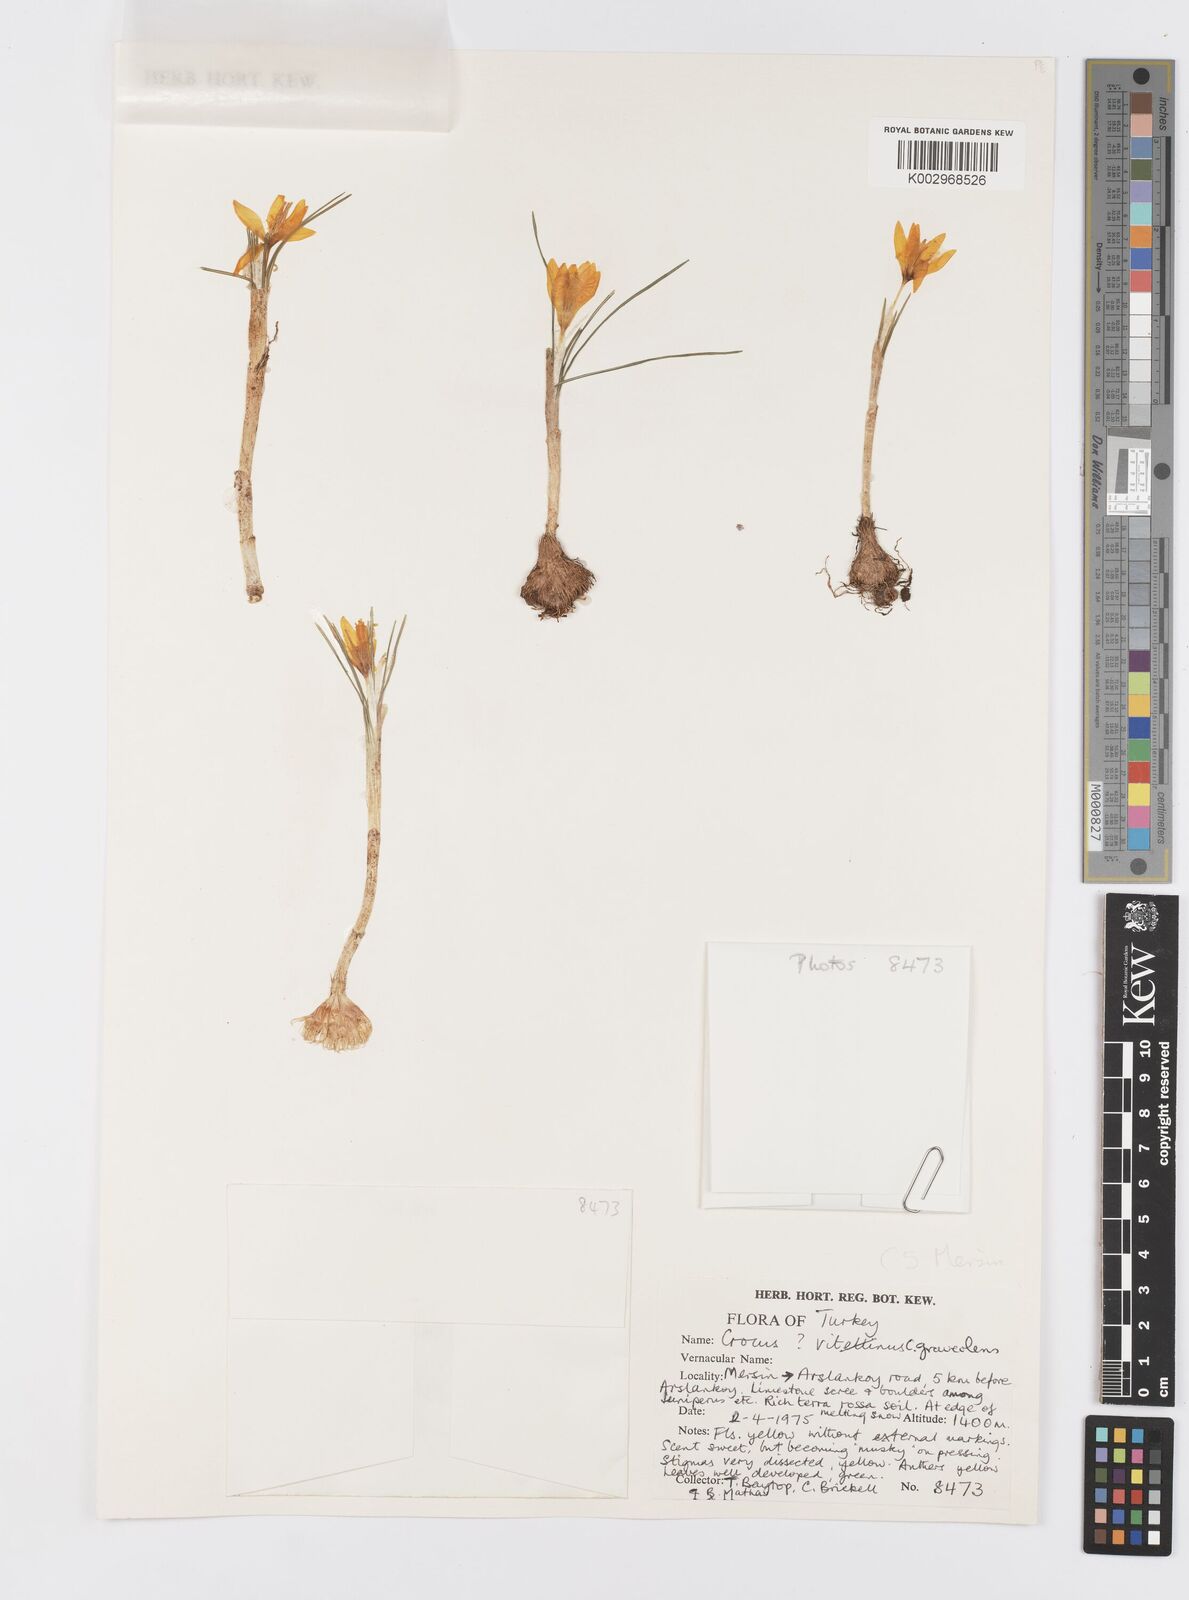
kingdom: Plantae
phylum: Tracheophyta
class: Liliopsida
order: Asparagales
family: Iridaceae
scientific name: Iridaceae
